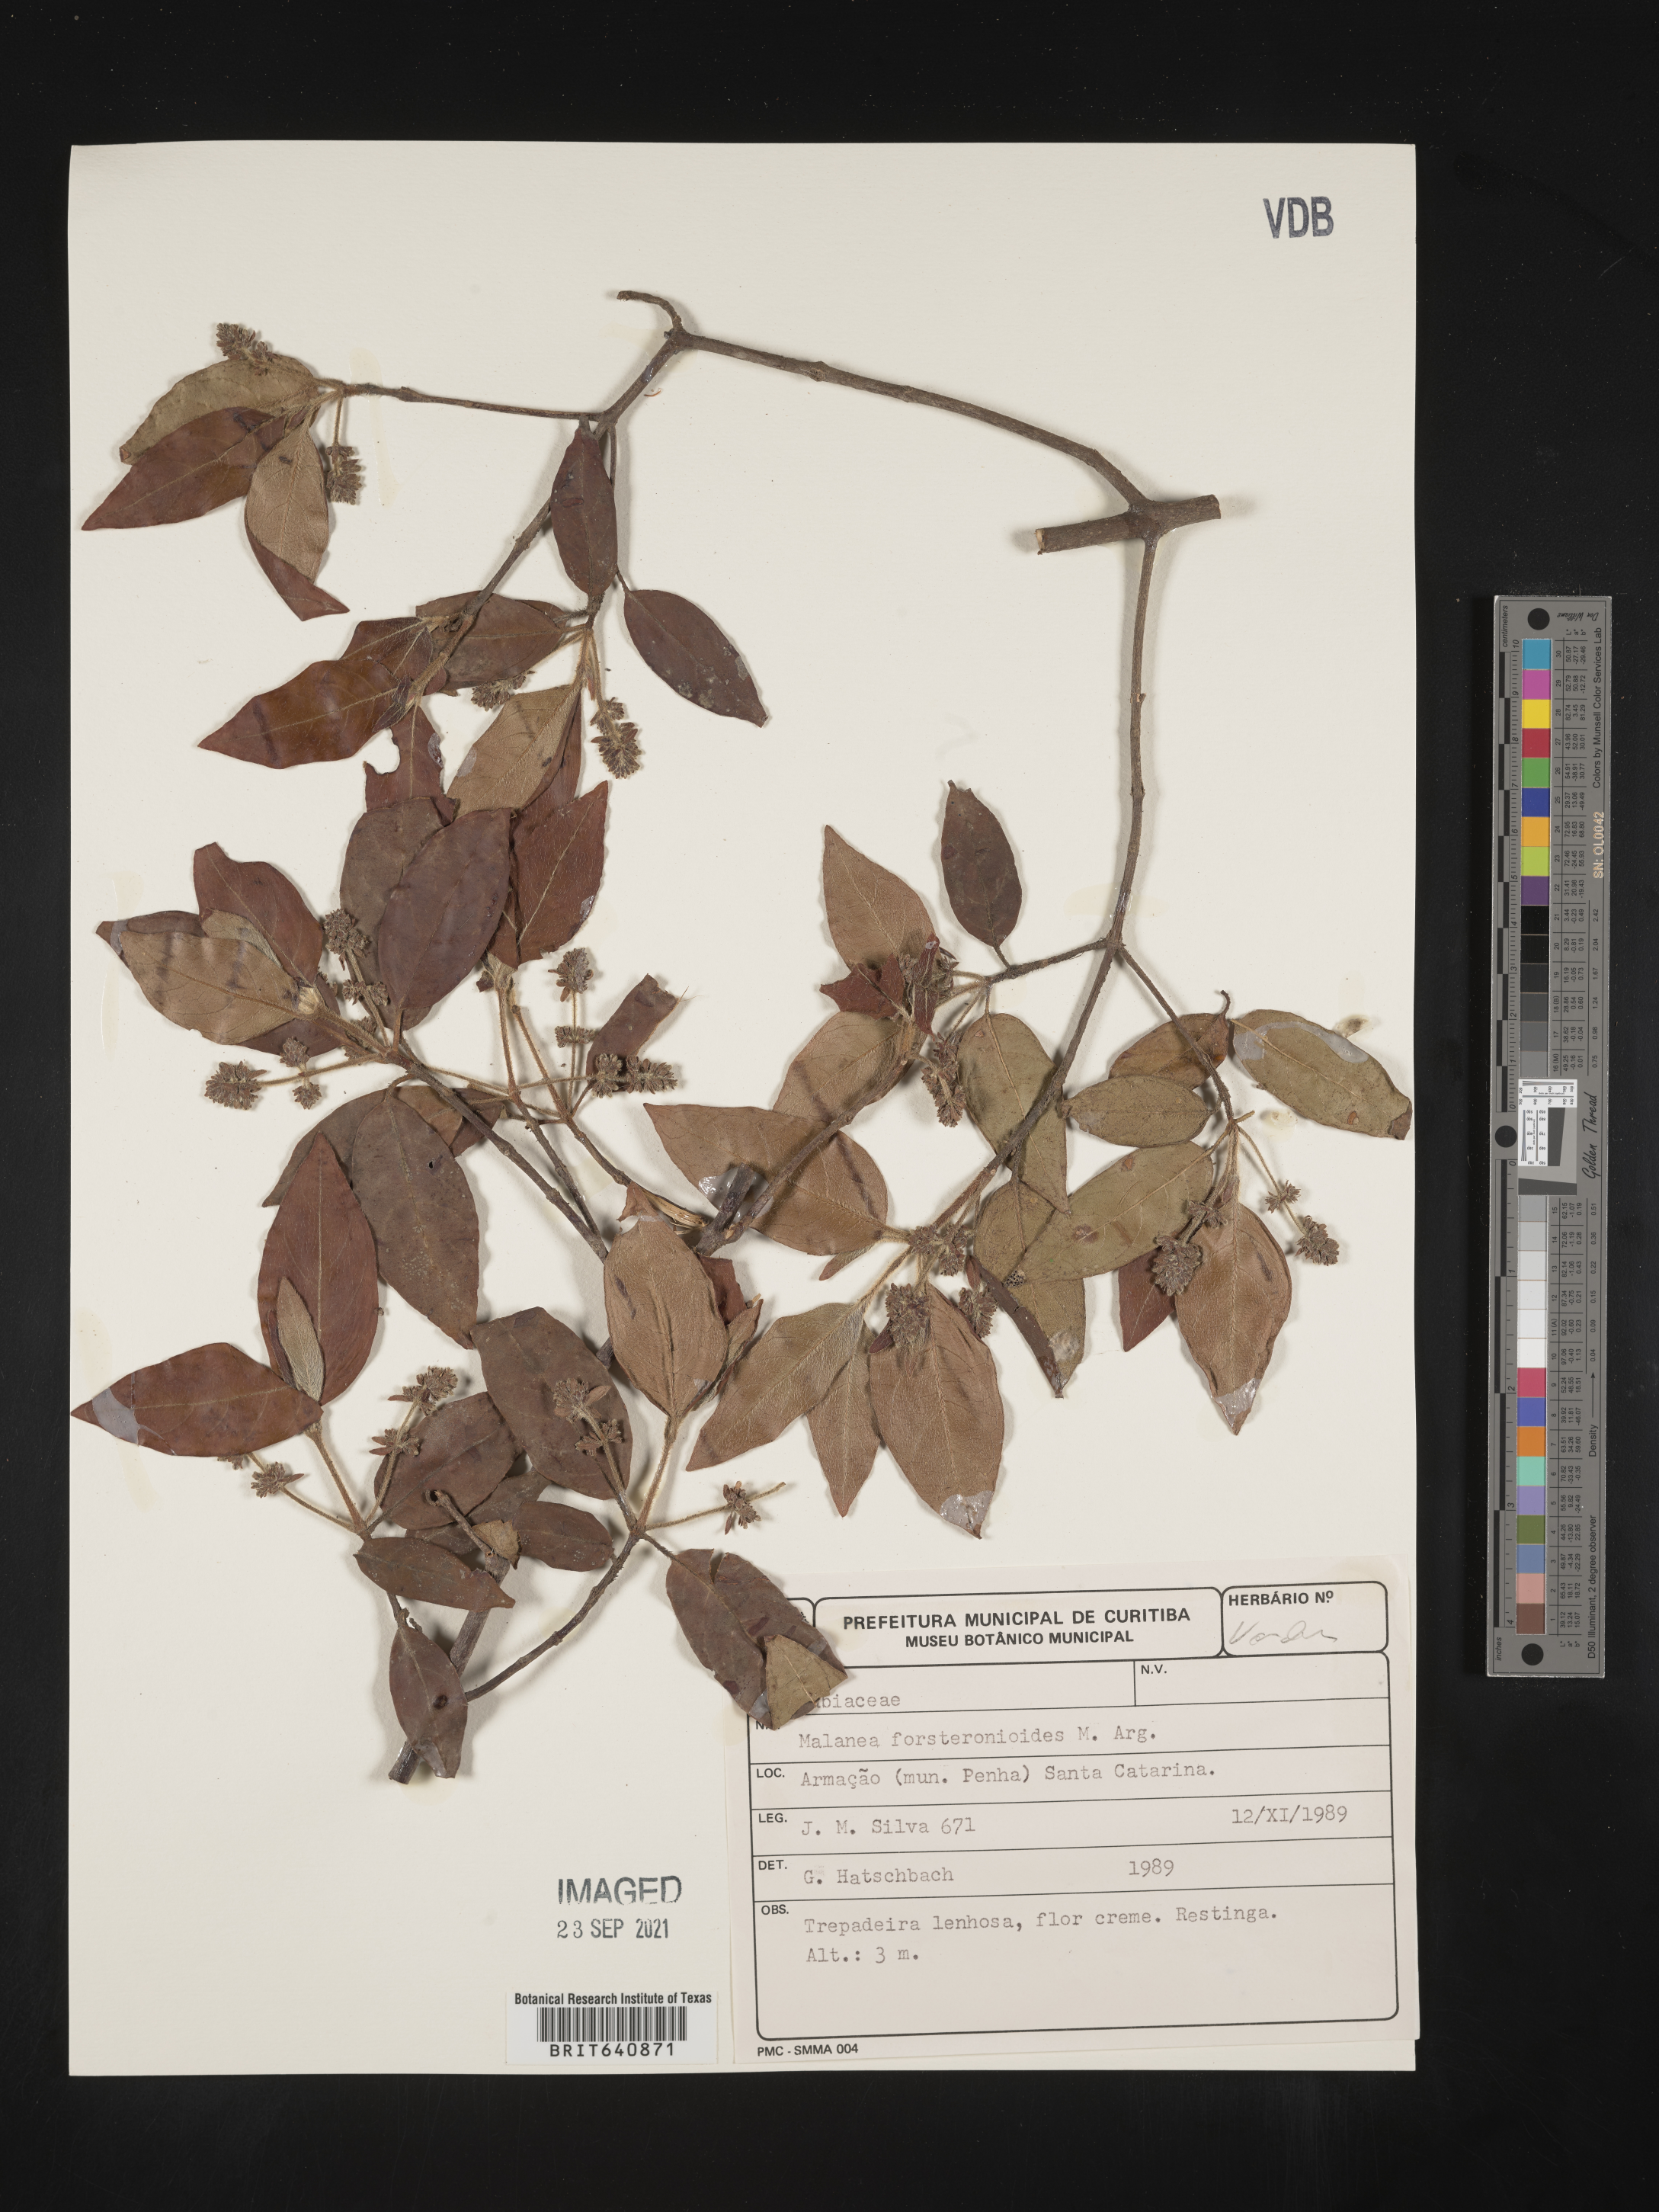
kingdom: Plantae
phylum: Tracheophyta
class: Magnoliopsida
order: Gentianales
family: Rubiaceae
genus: Malanea
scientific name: Malanea
